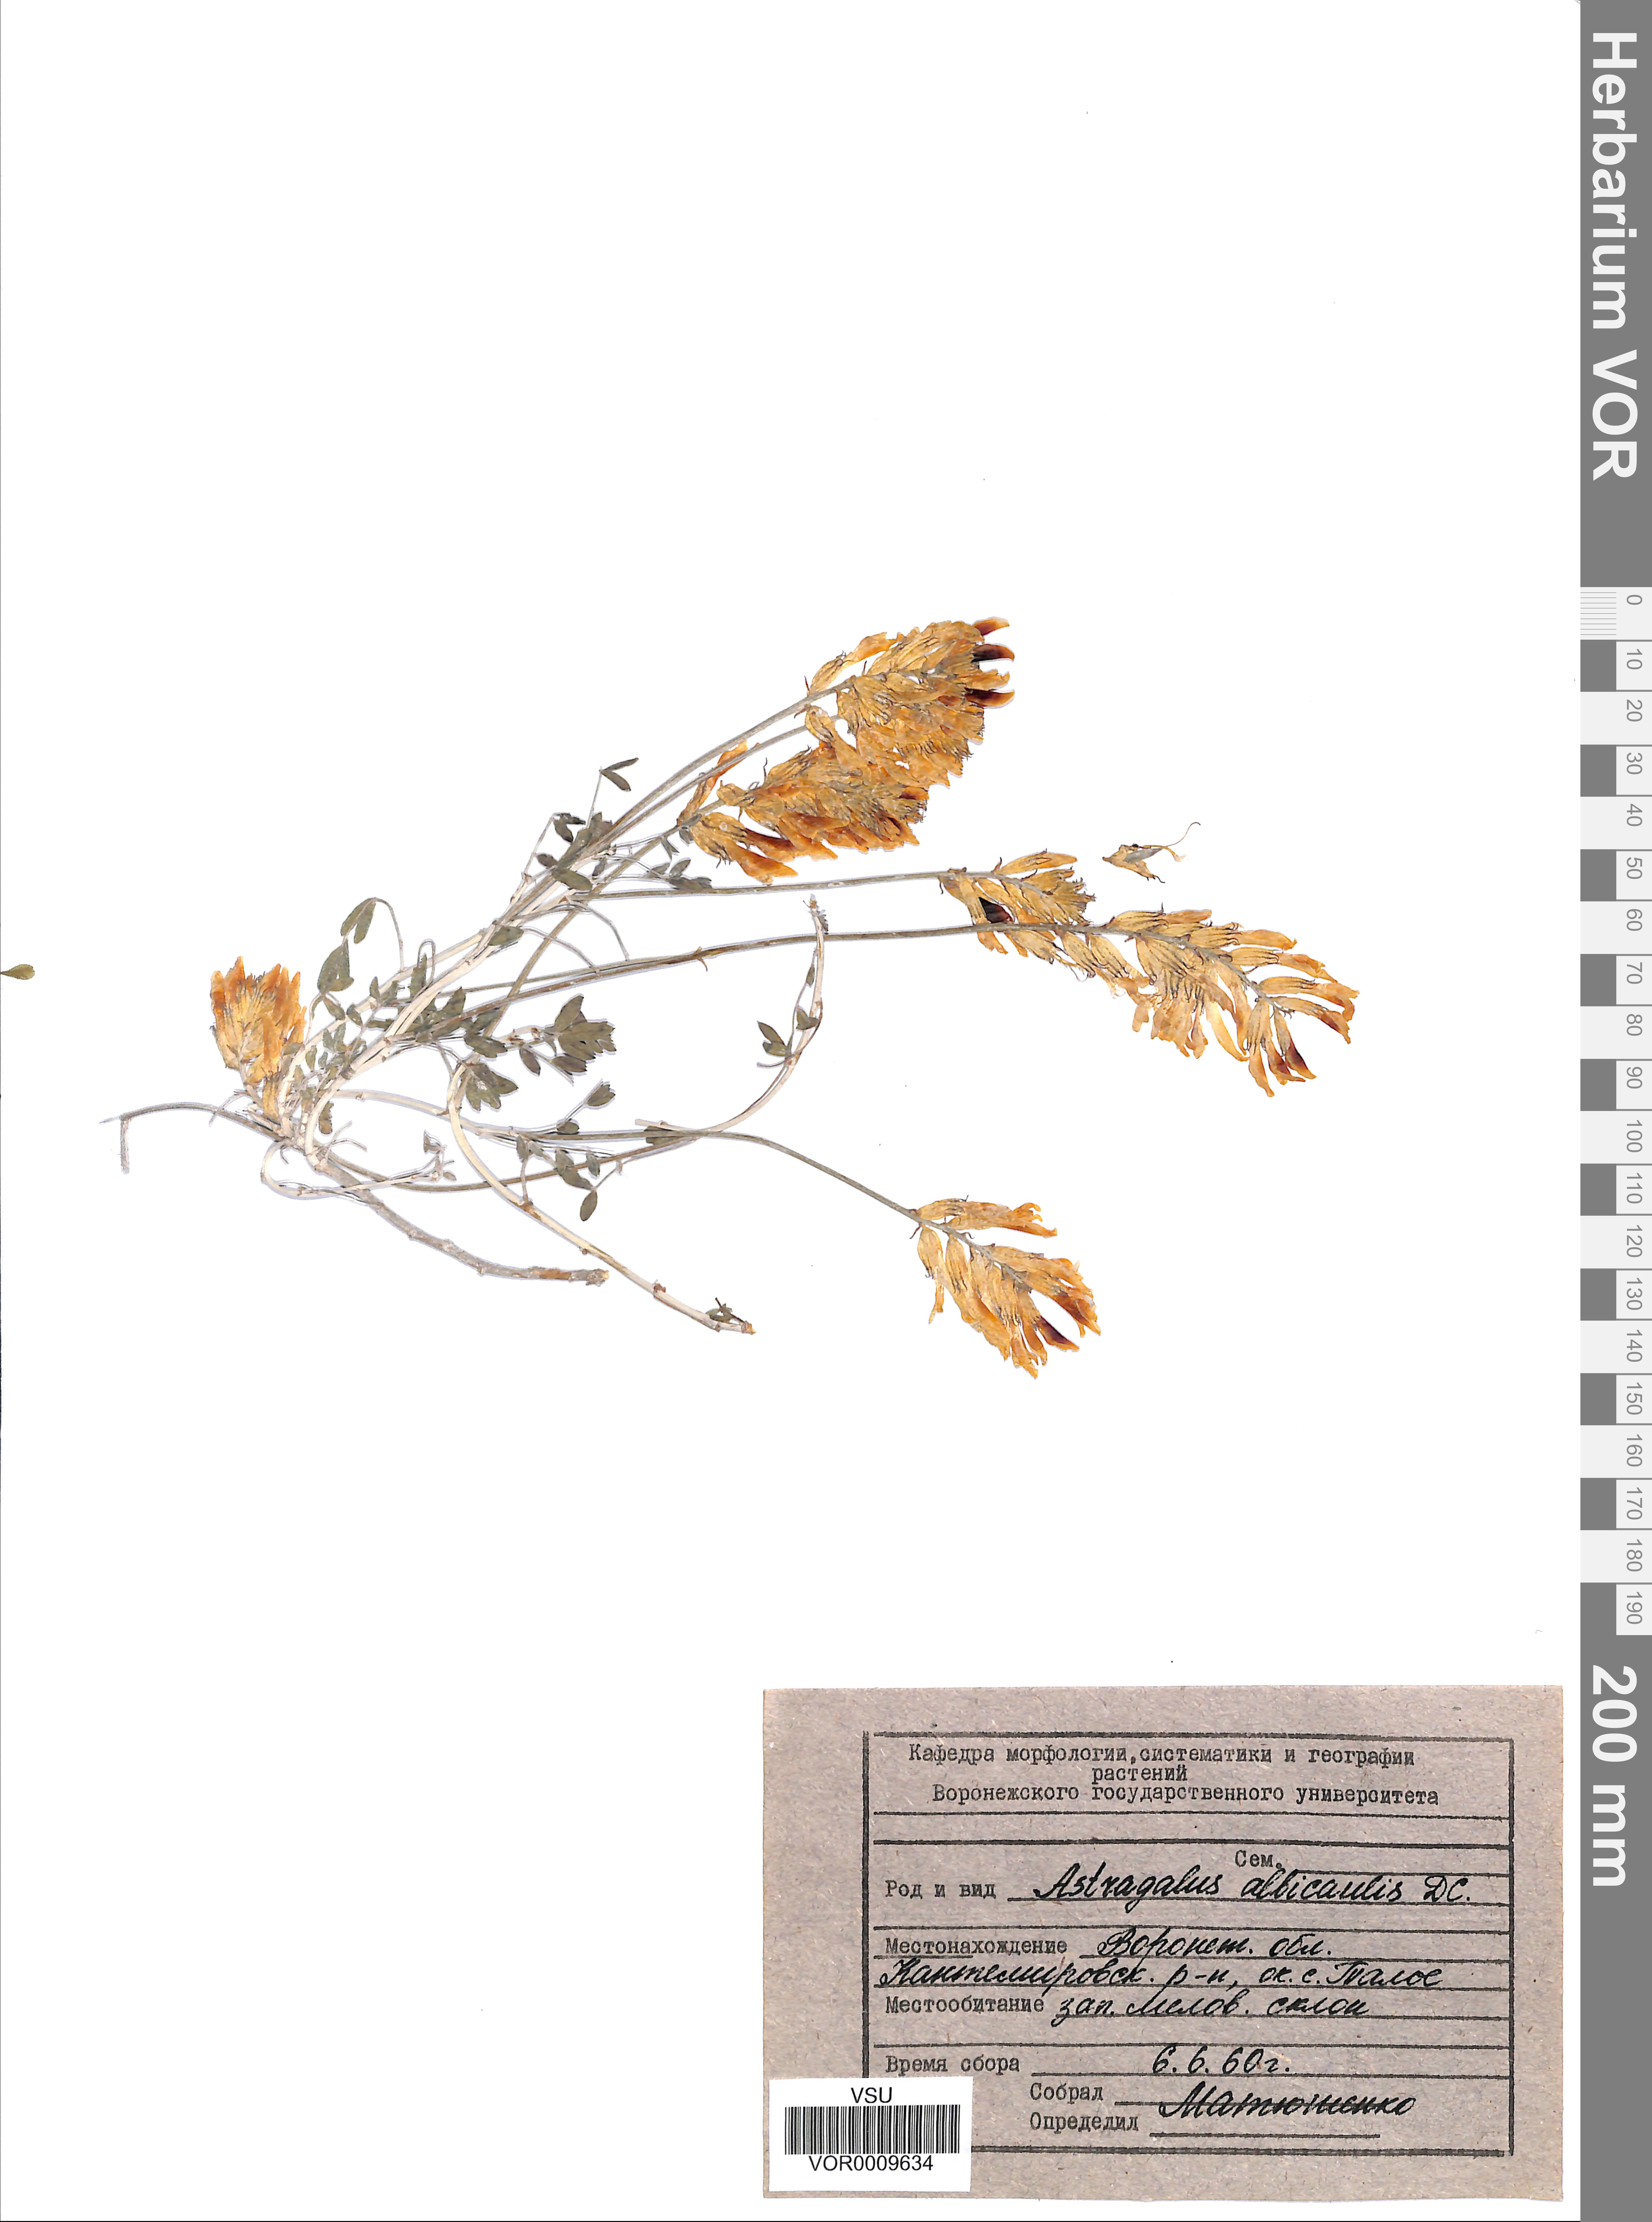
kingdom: Plantae
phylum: Tracheophyta
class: Magnoliopsida
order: Fabales
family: Fabaceae
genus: Astragalus
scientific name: Astragalus albicaulis
